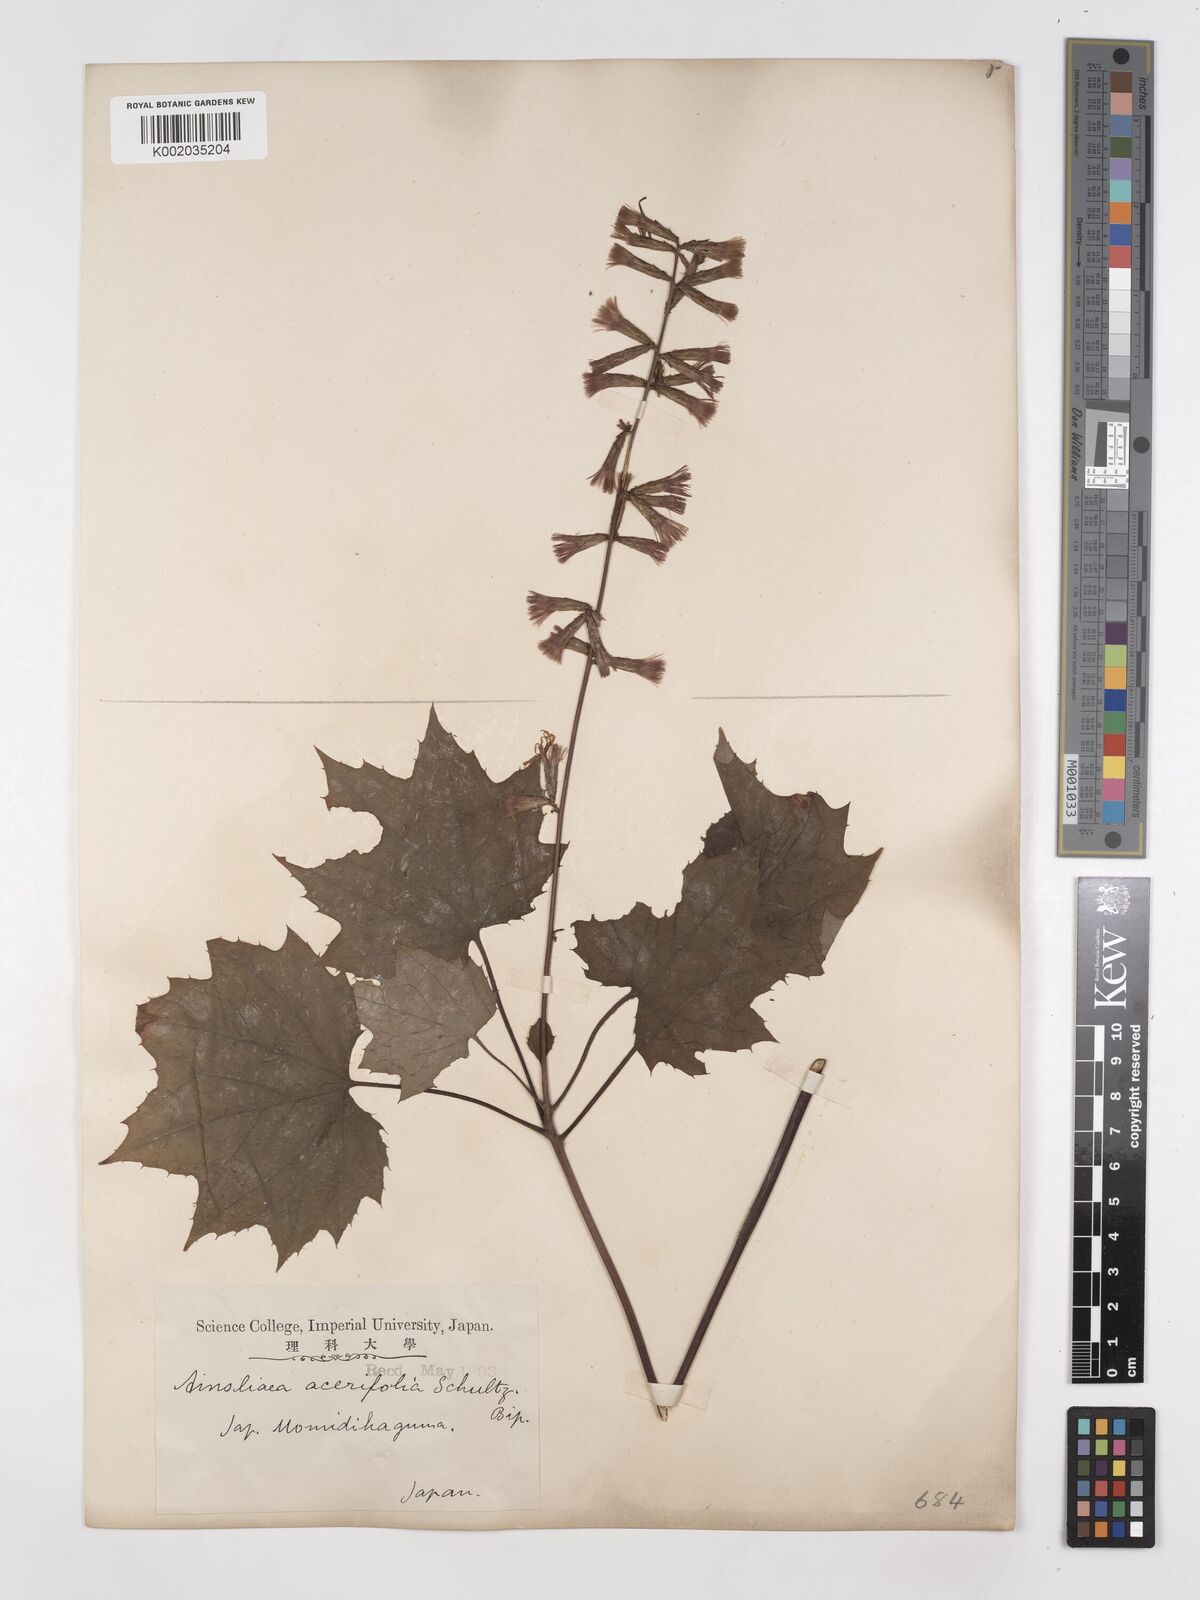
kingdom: Plantae
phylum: Tracheophyta
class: Magnoliopsida
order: Asterales
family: Asteraceae
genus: Ainsliaea
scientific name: Ainsliaea acerifolia
